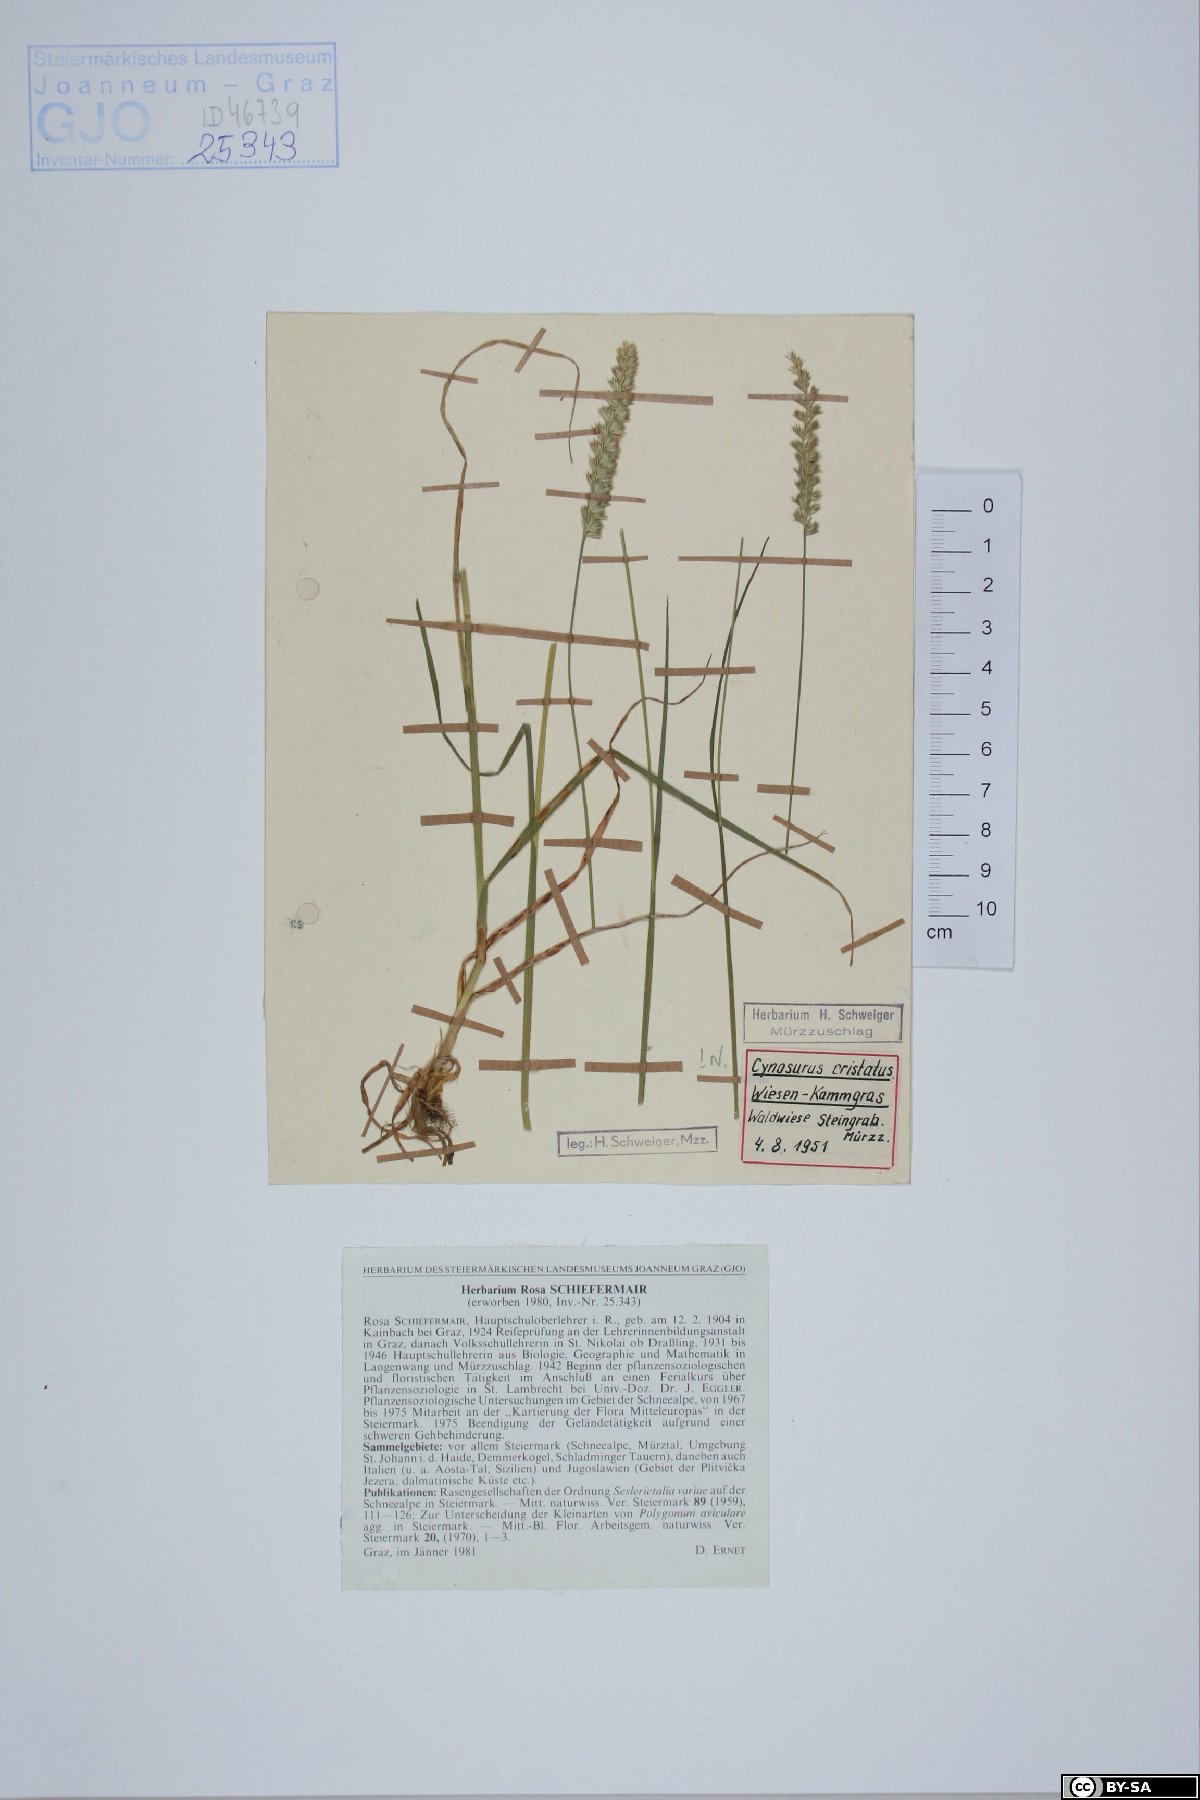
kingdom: Plantae
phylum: Tracheophyta
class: Liliopsida
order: Poales
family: Poaceae
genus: Cynosurus
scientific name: Cynosurus cristatus
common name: Crested dog's-tail
